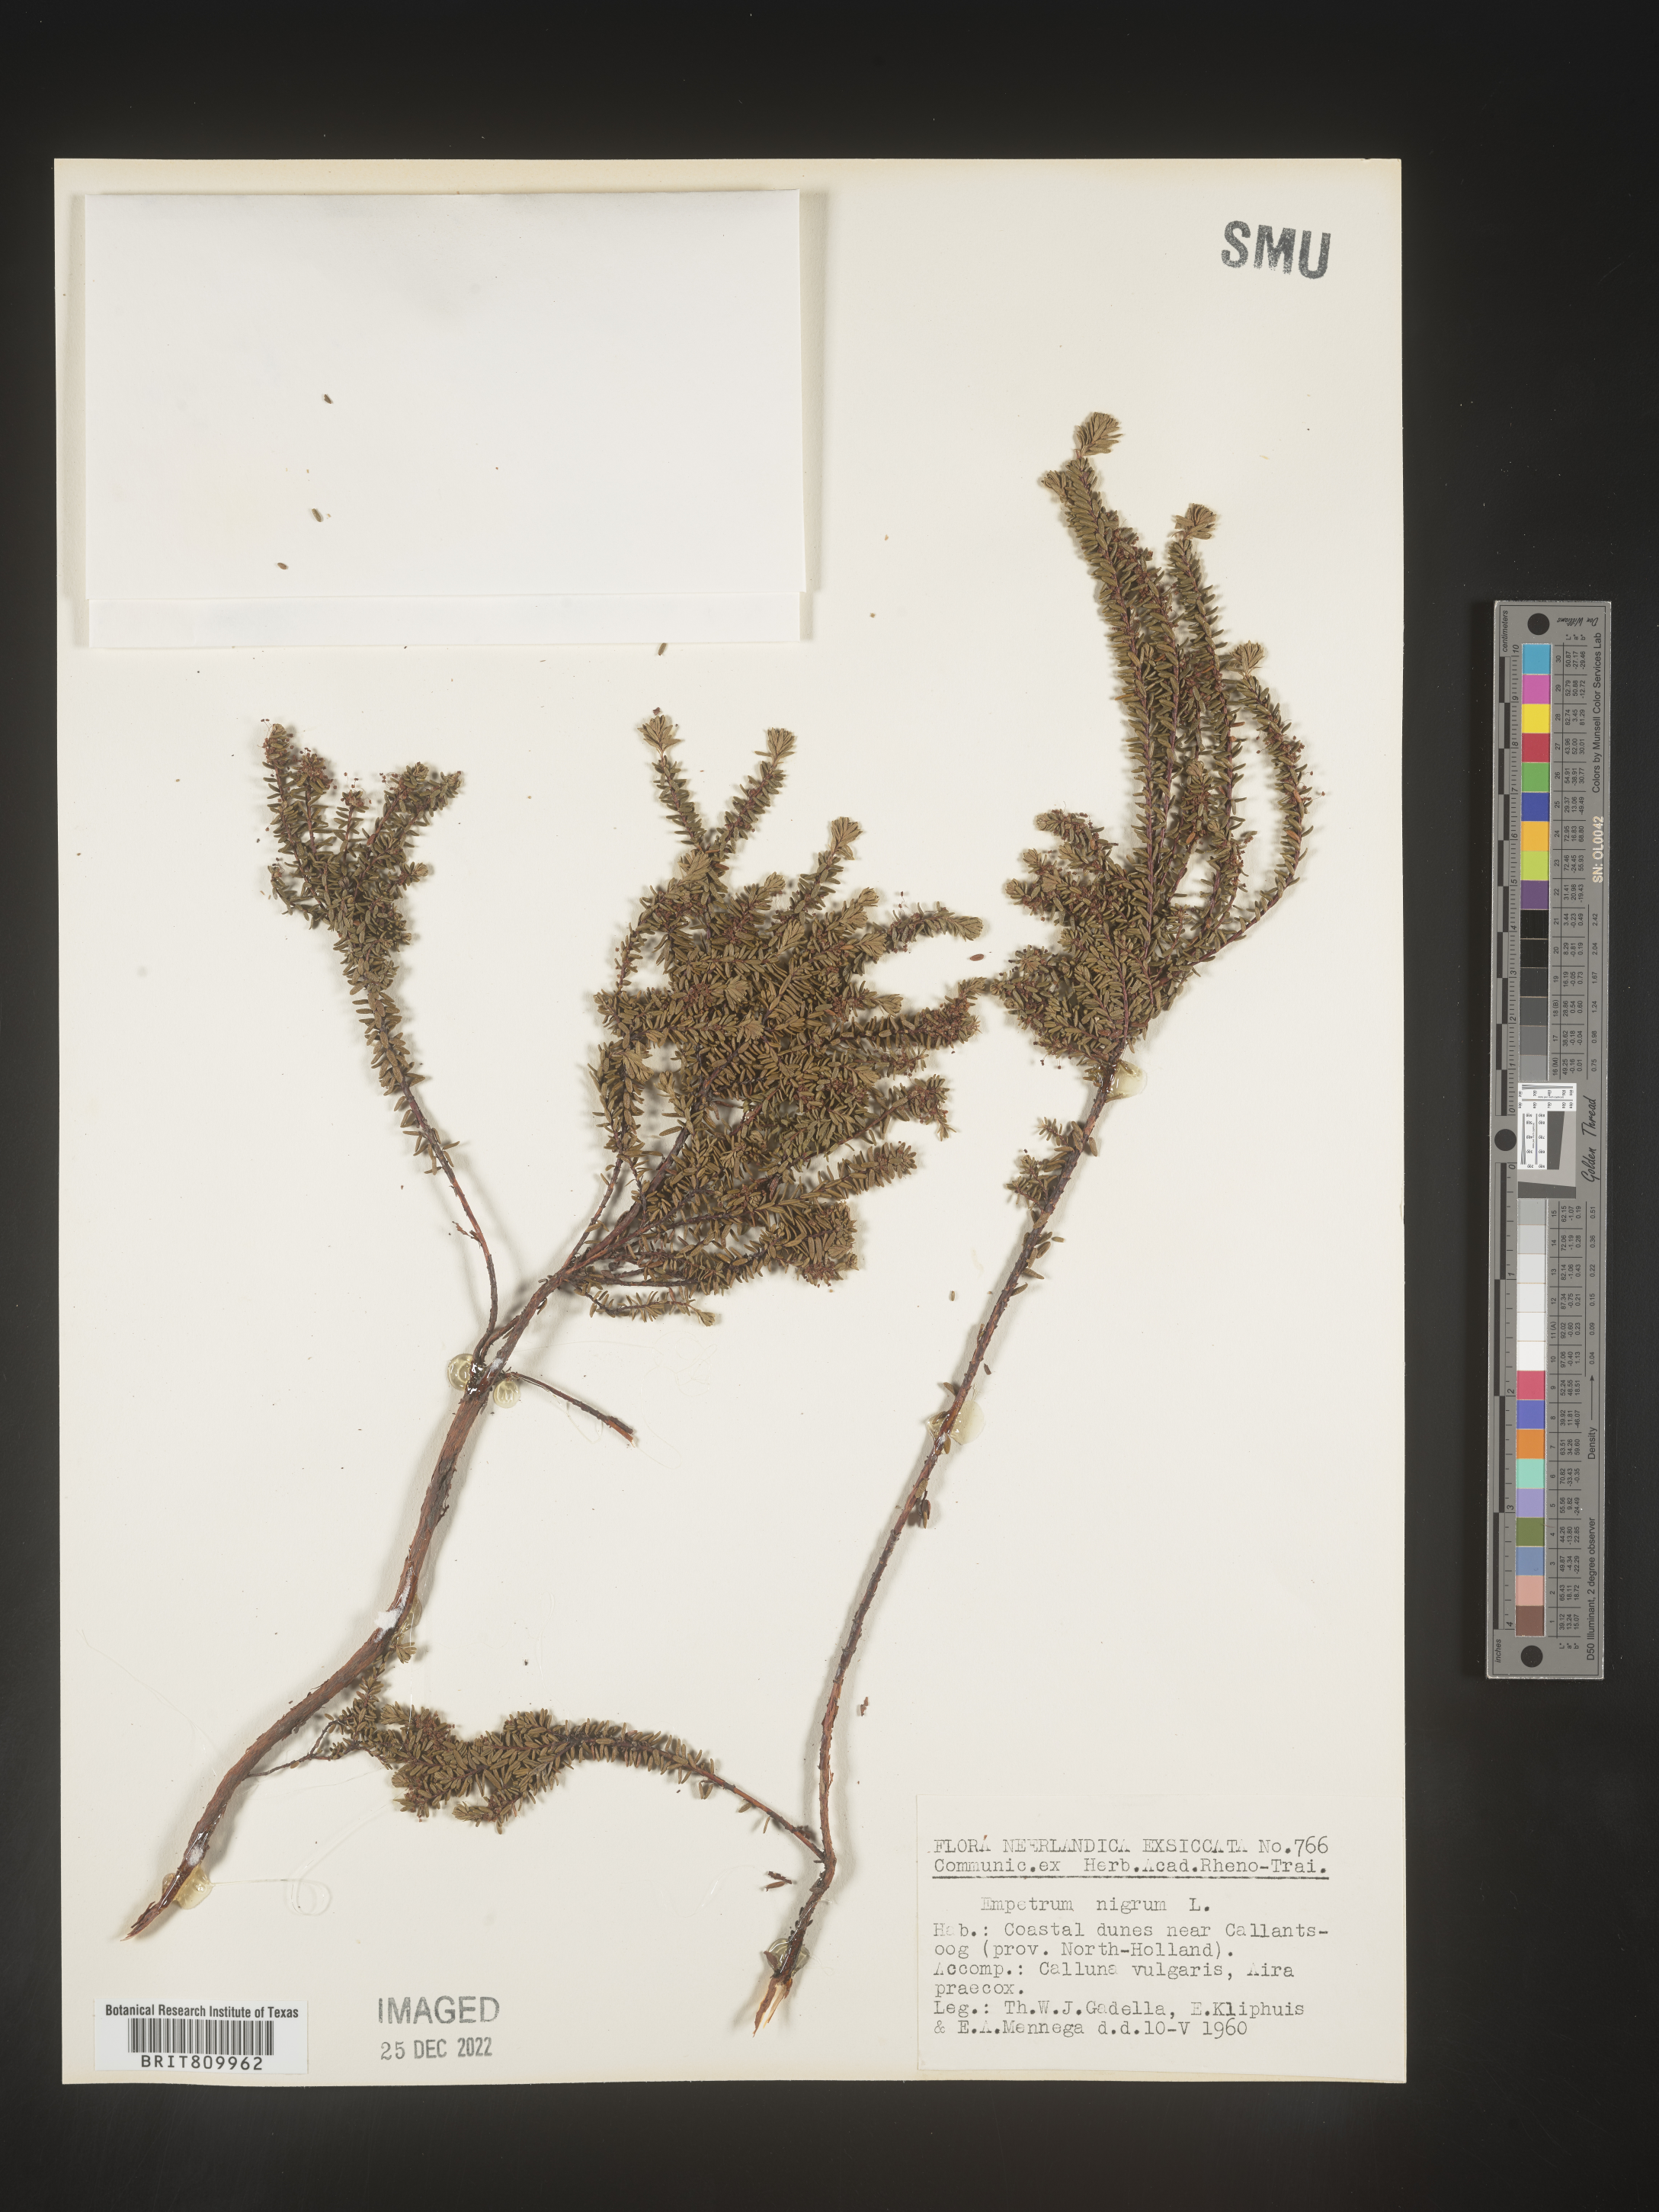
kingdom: Plantae
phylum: Tracheophyta
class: Magnoliopsida
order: Ericales
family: Ericaceae
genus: Empetrum
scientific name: Empetrum
